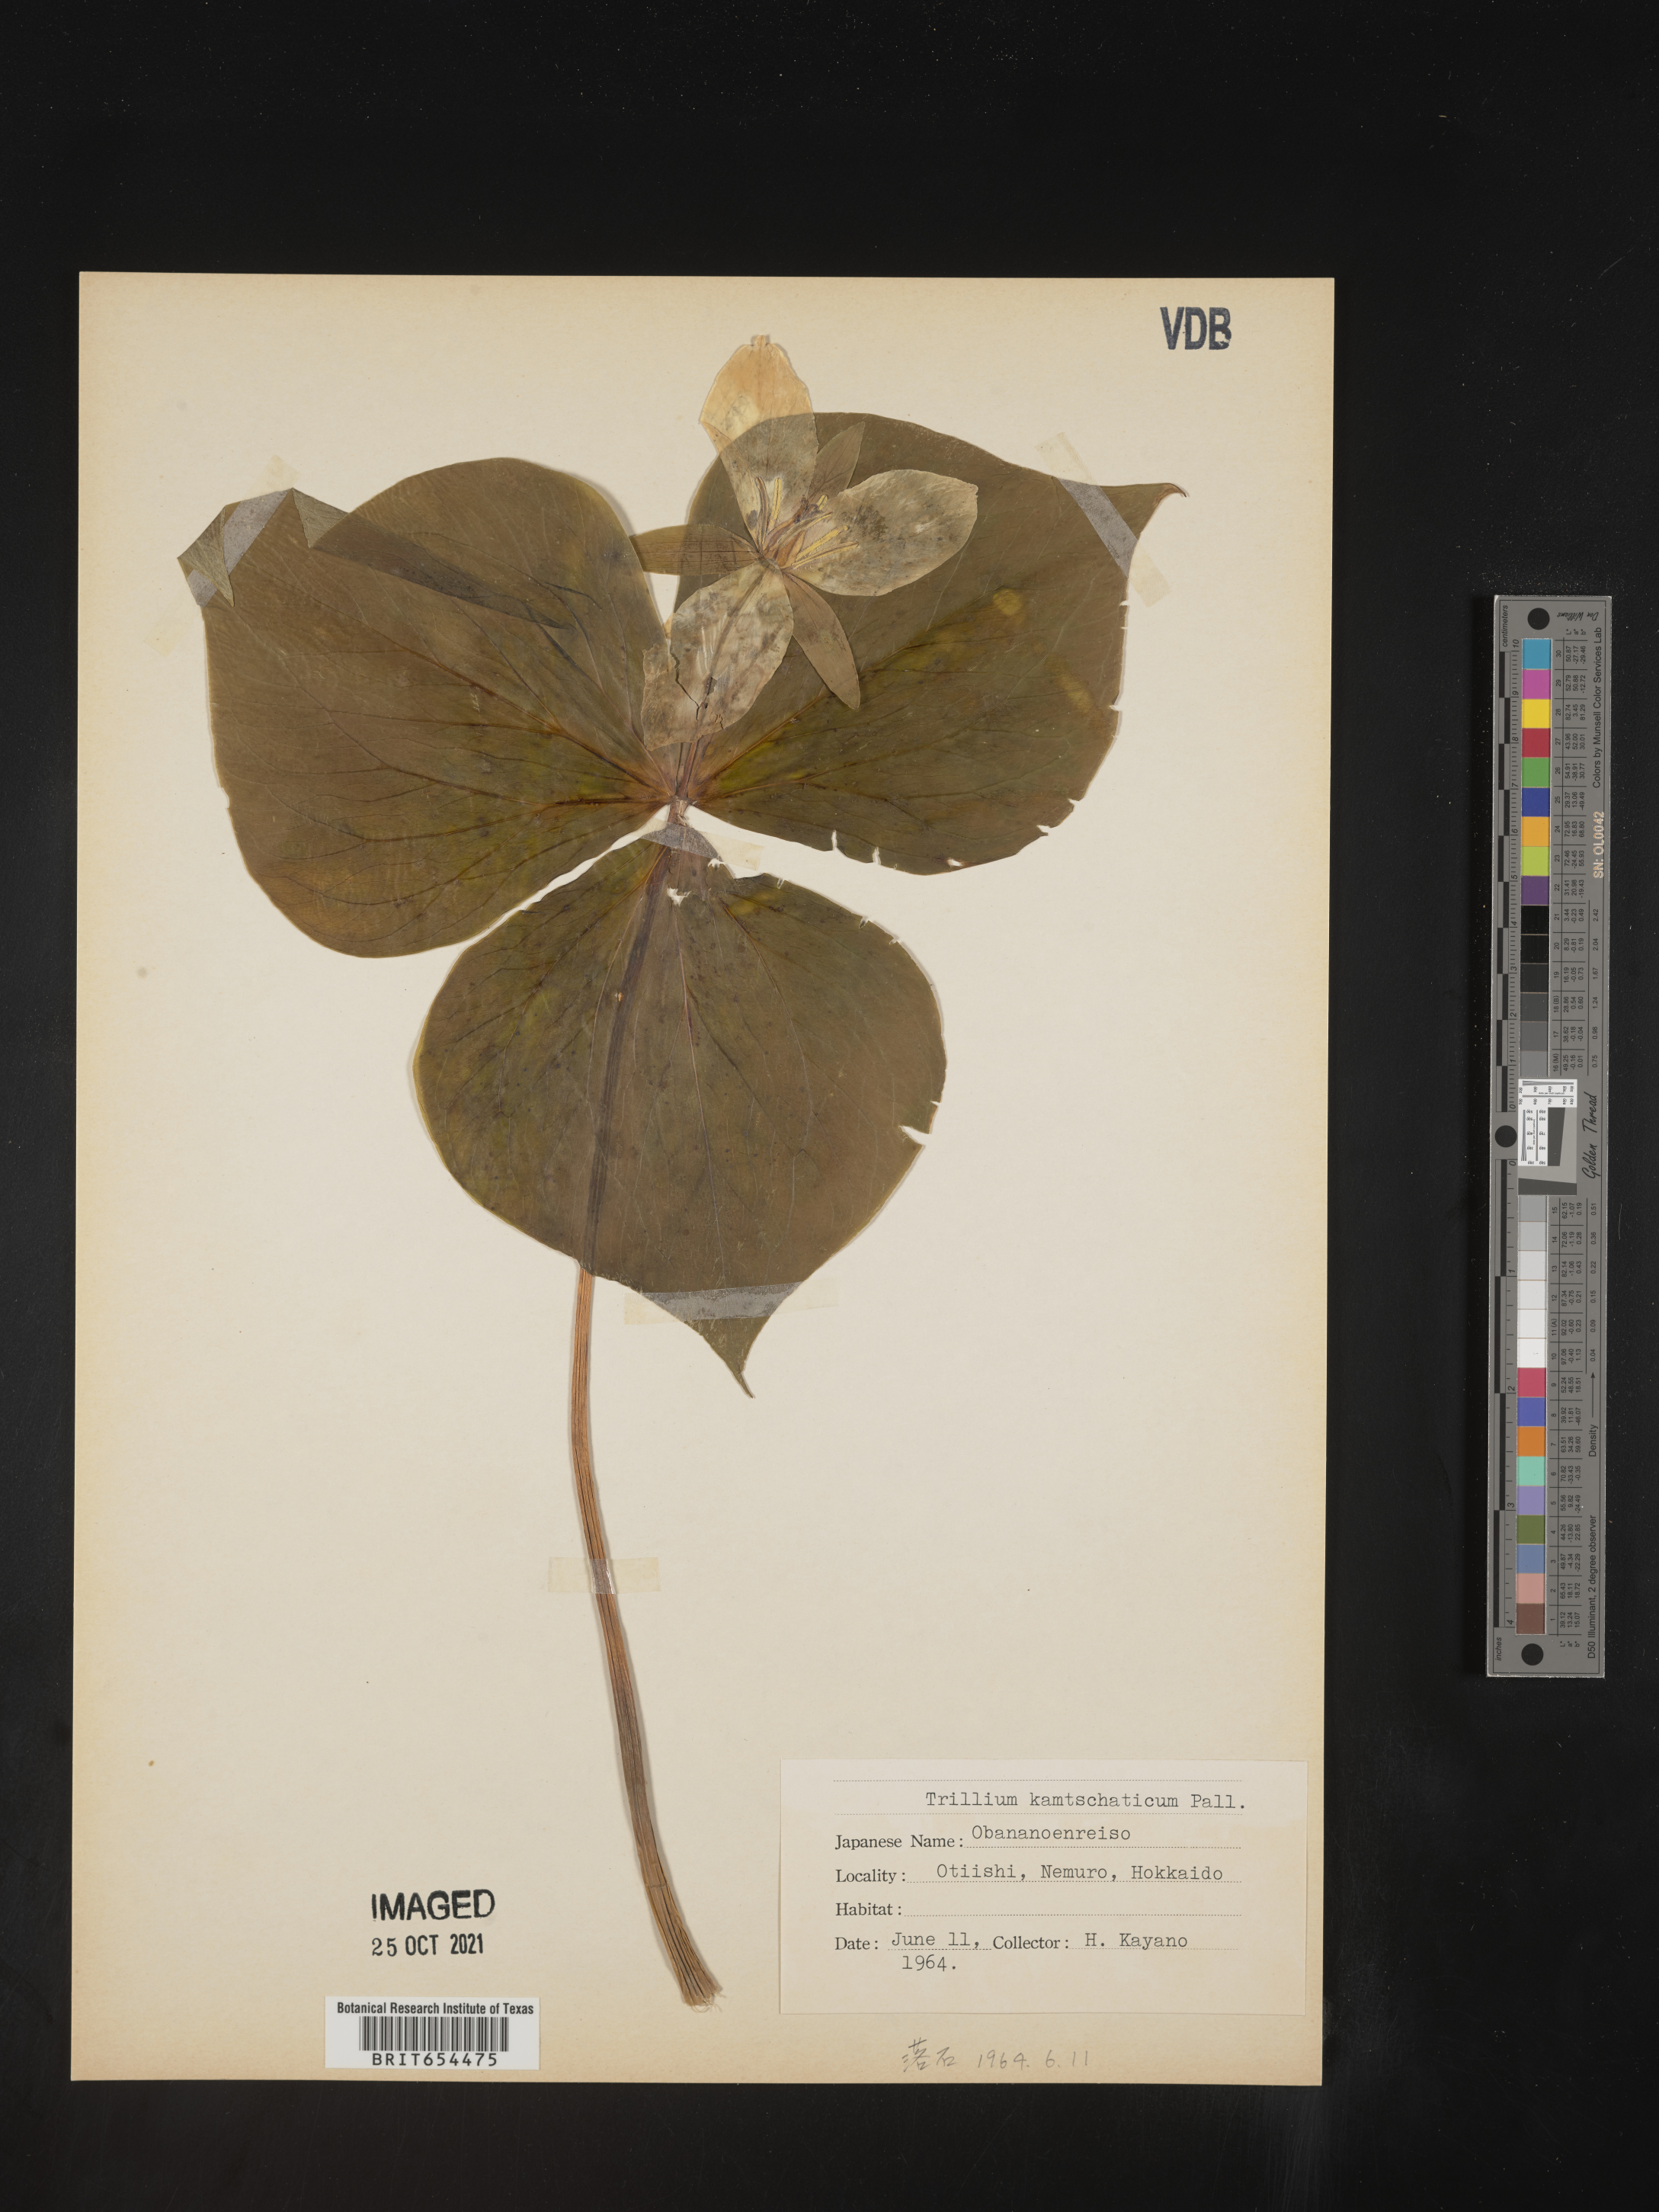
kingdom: Plantae
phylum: Tracheophyta
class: Liliopsida
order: Liliales
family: Melanthiaceae
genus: Trillium
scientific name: Trillium
